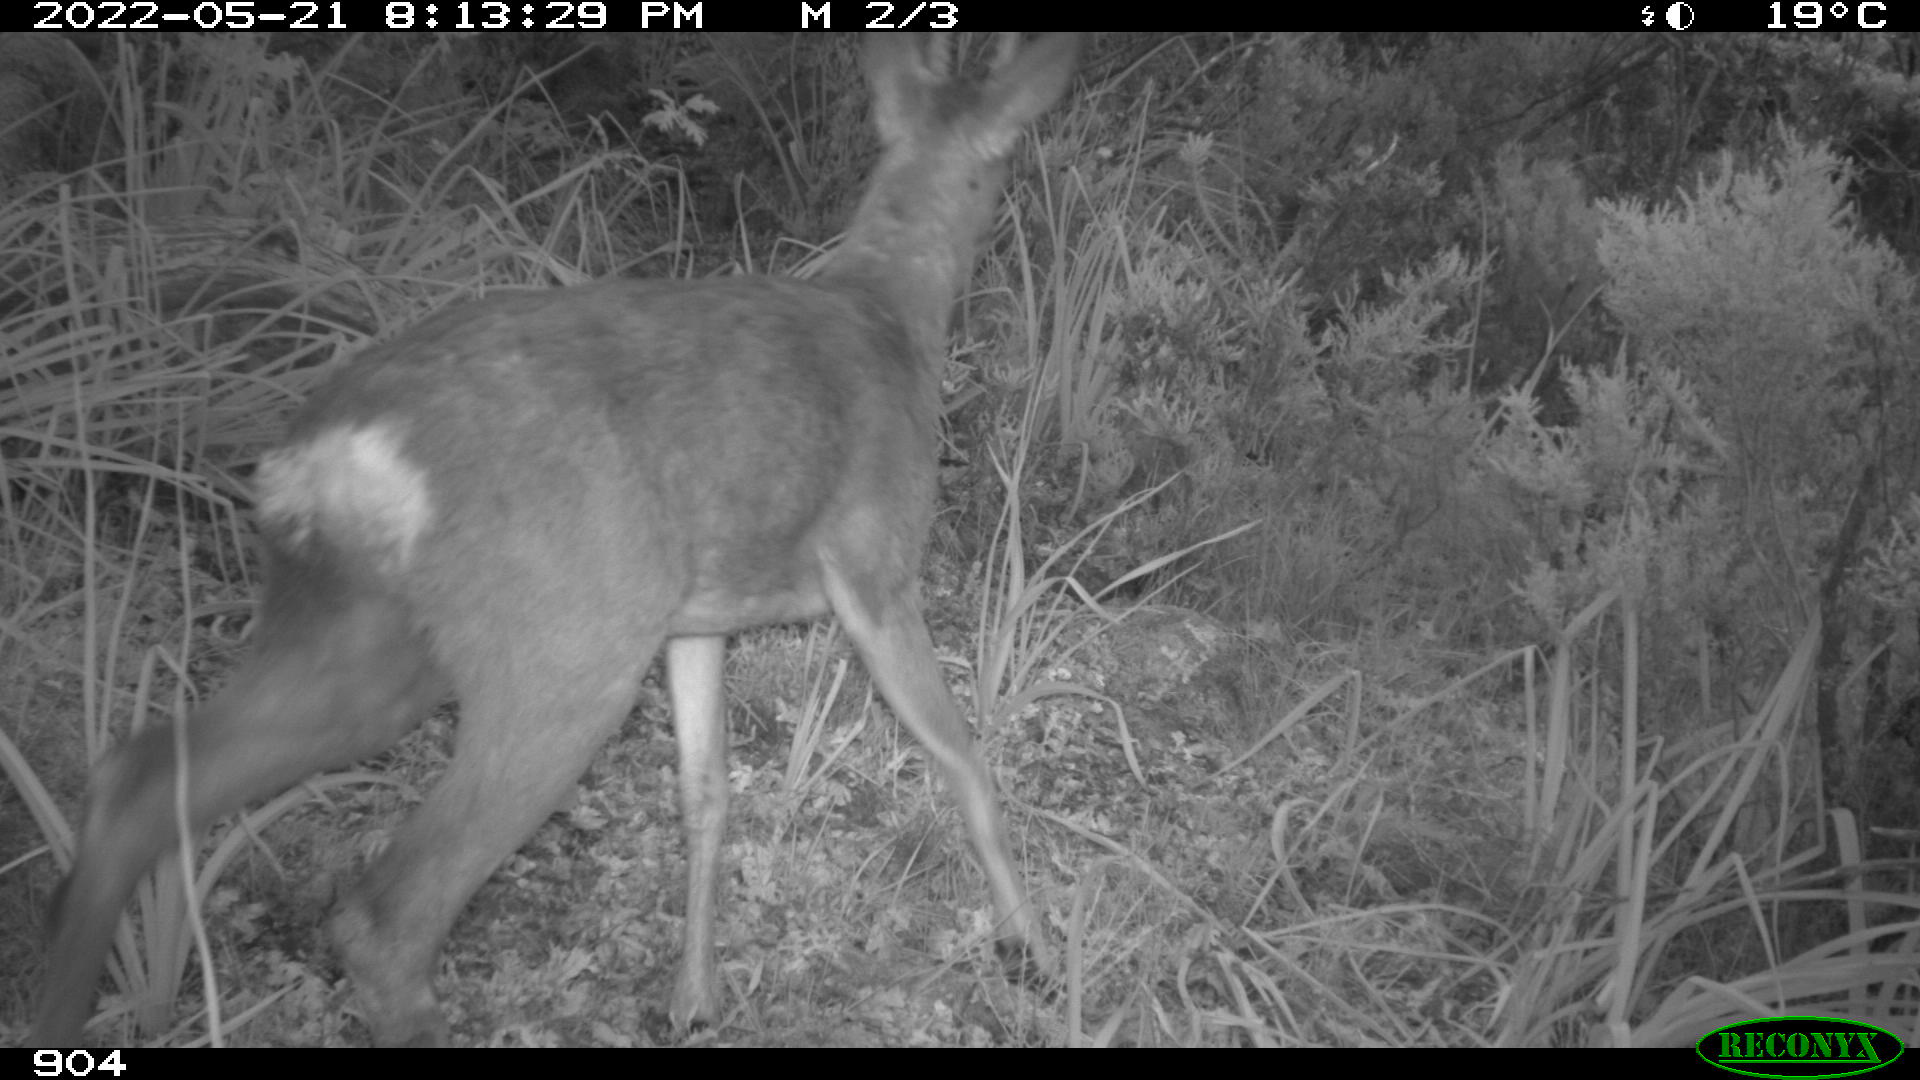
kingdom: Animalia
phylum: Chordata
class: Mammalia
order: Artiodactyla
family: Cervidae
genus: Capreolus
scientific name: Capreolus capreolus
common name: Western roe deer
